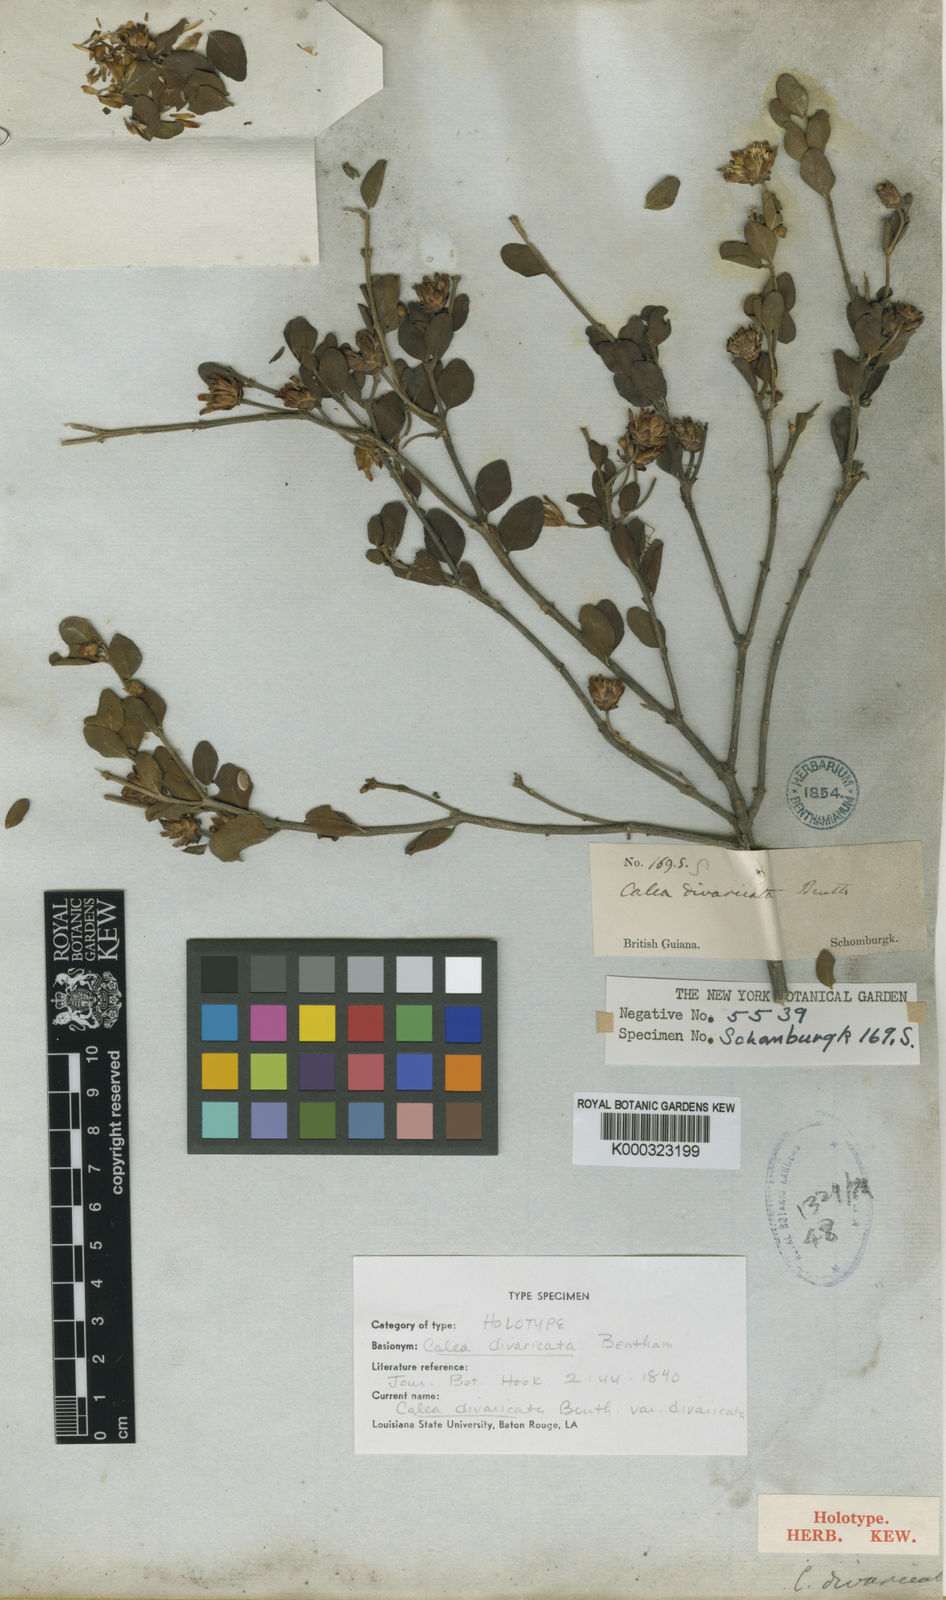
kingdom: Plantae
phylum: Tracheophyta
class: Magnoliopsida
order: Asterales
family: Asteraceae
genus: Calea
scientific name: Calea divaricata
